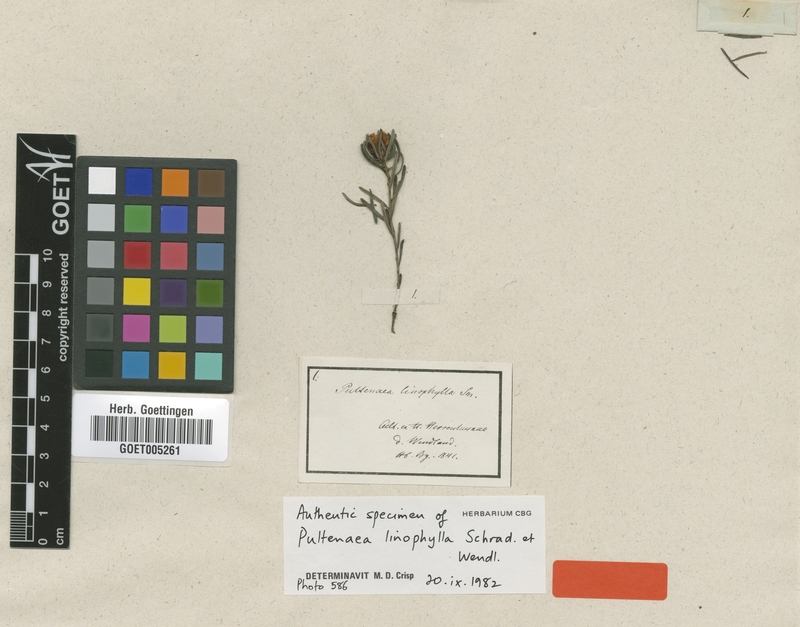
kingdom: Plantae
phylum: Tracheophyta
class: Magnoliopsida
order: Fabales
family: Fabaceae
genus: Pultenaea
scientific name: Pultenaea linophylla
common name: Halo bush-pea
